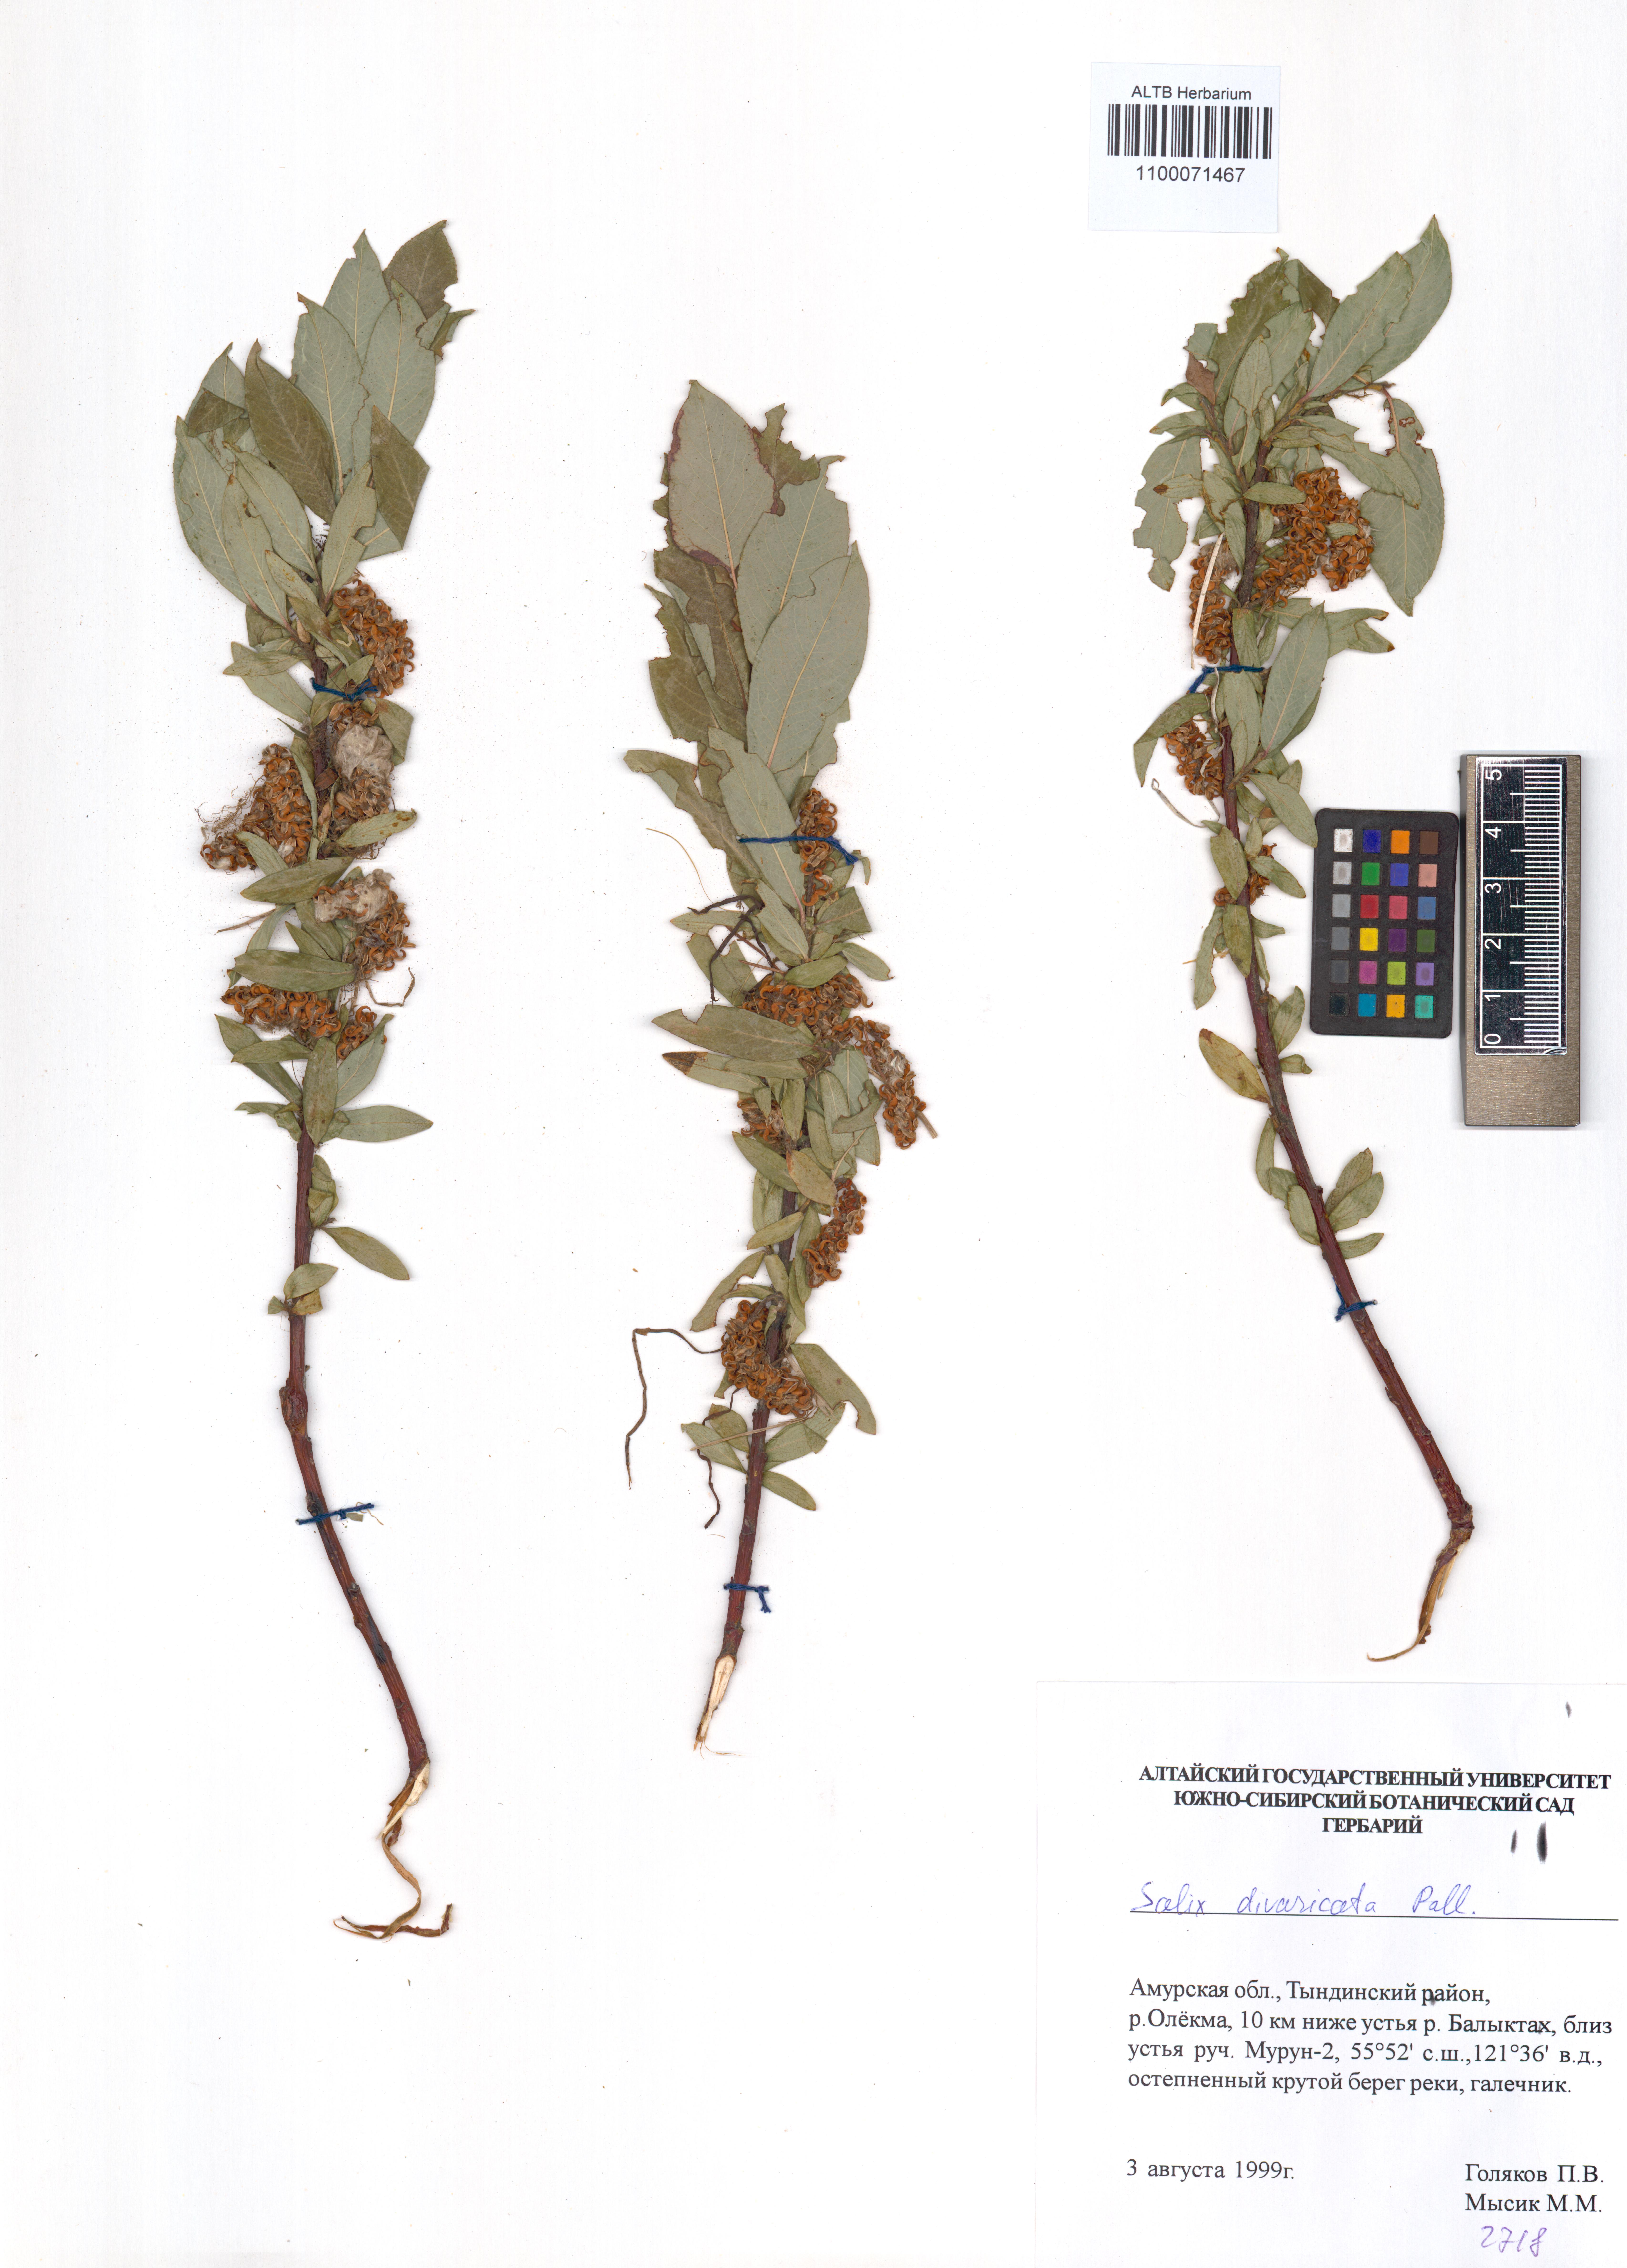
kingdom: Plantae
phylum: Tracheophyta
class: Magnoliopsida
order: Malpighiales
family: Salicaceae
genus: Salix
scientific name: Salix divaricata
